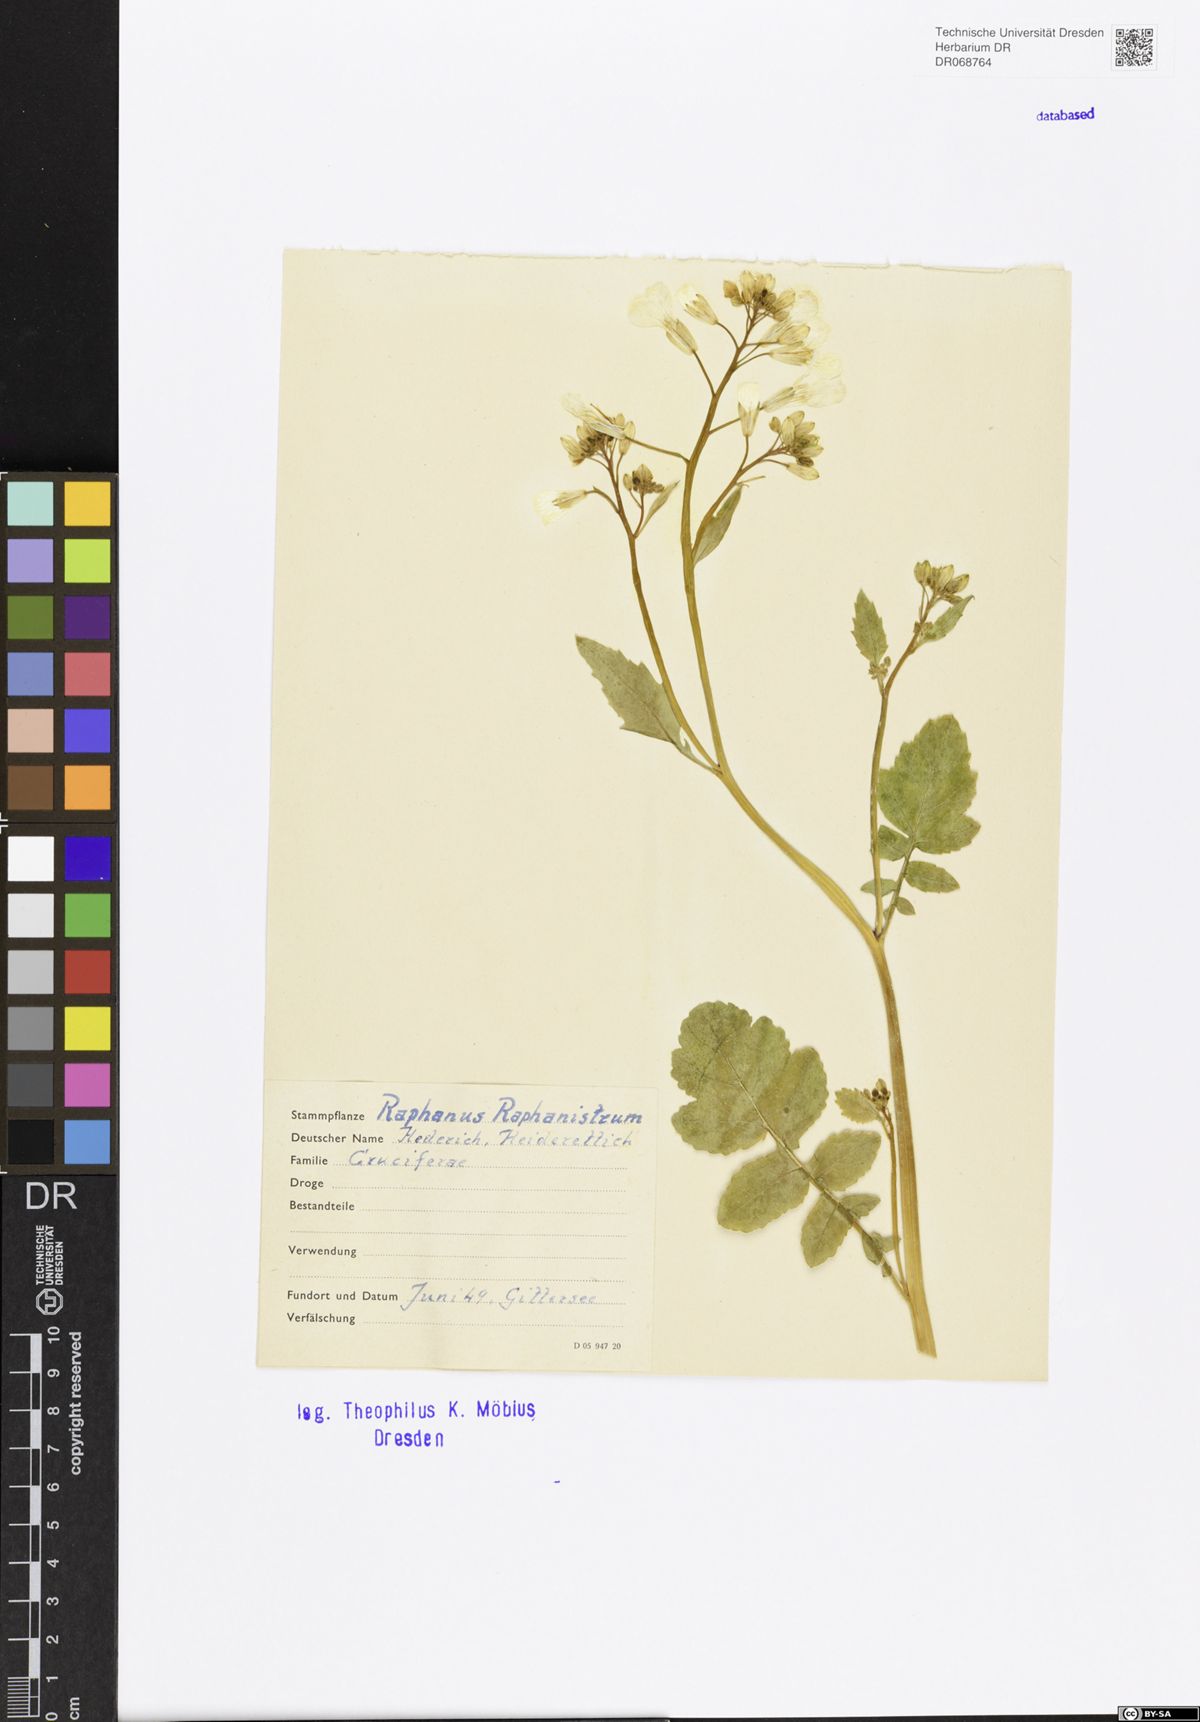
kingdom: Plantae
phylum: Tracheophyta
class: Magnoliopsida
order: Brassicales
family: Brassicaceae
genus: Raphanus
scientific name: Raphanus raphanistrum
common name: Wild radish
